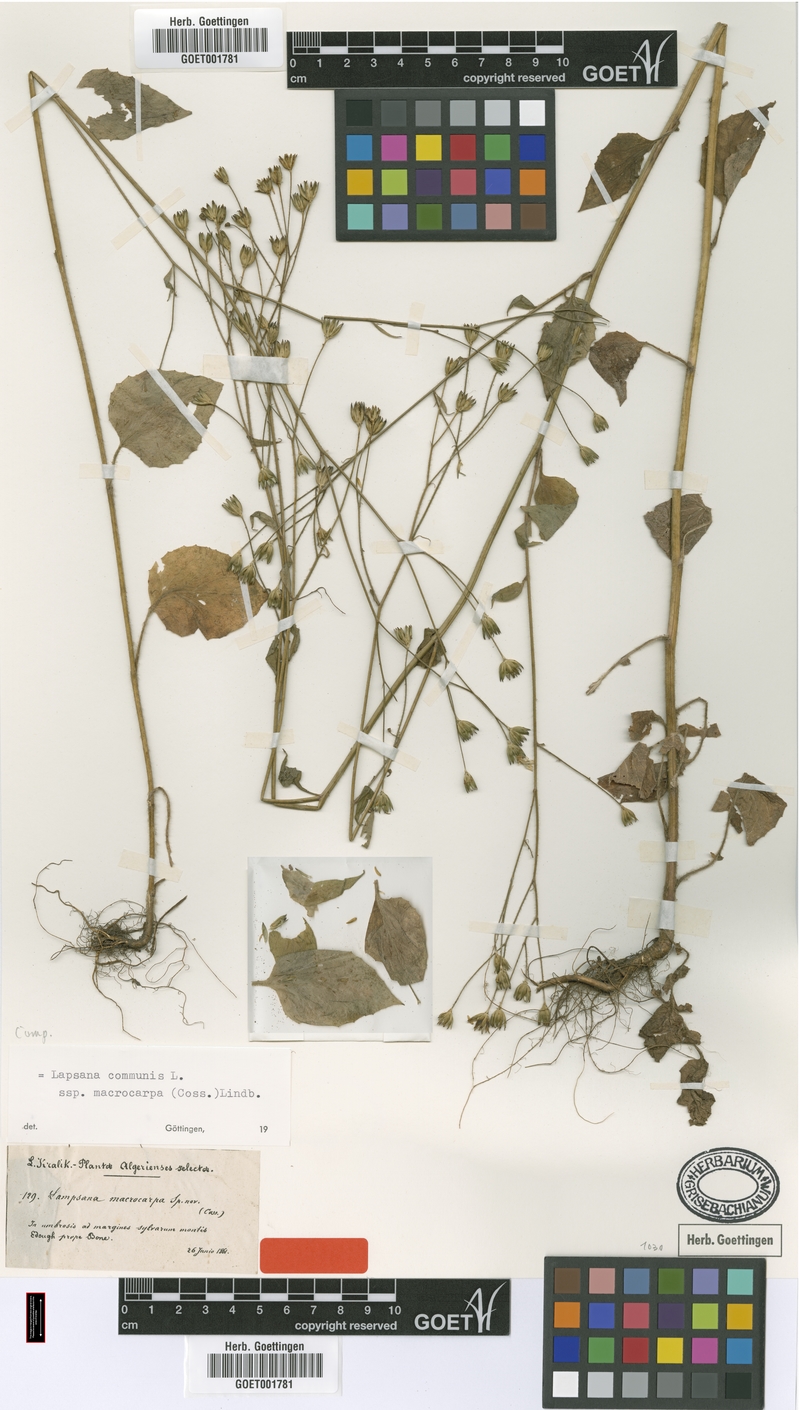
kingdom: Plantae
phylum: Tracheophyta
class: Magnoliopsida
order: Asterales
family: Asteraceae
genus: Lapsana
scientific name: Lapsana communis
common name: Nipplewort
